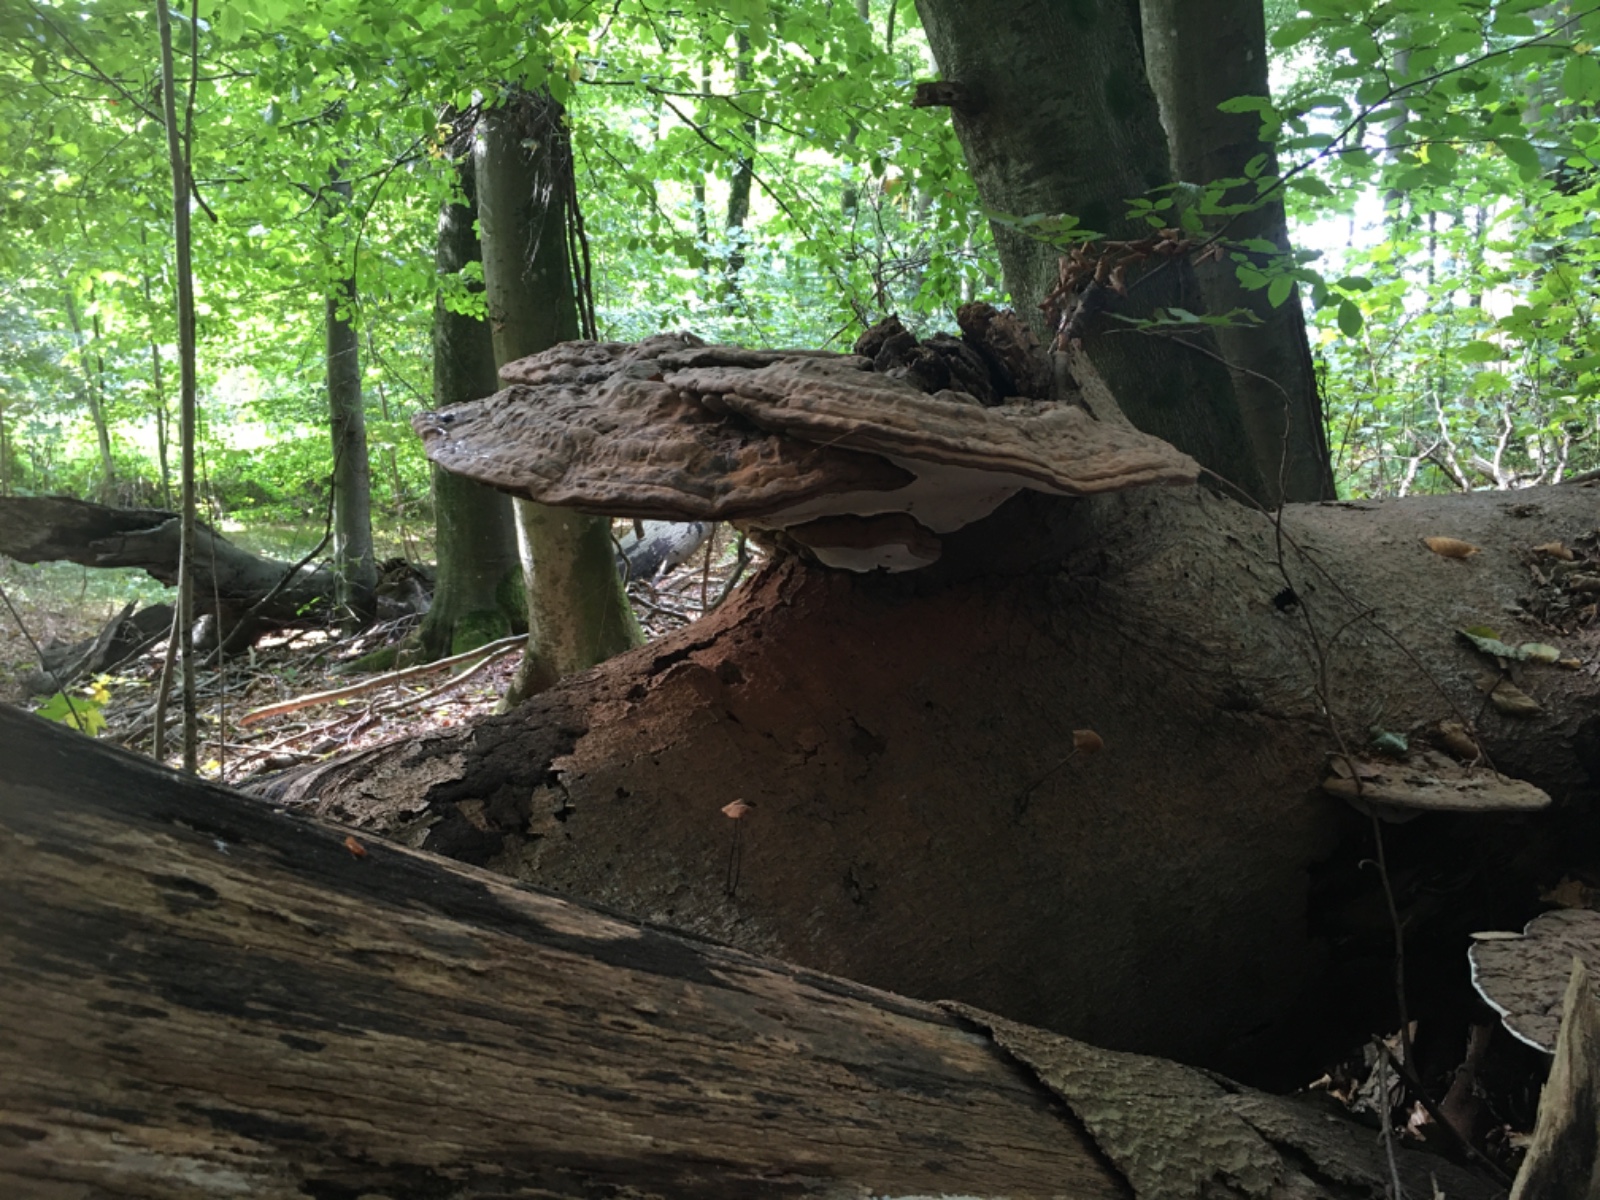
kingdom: Fungi
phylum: Basidiomycota
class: Agaricomycetes
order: Polyporales
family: Polyporaceae
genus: Ganoderma
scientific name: Ganoderma applanatum
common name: flad lakporesvamp
